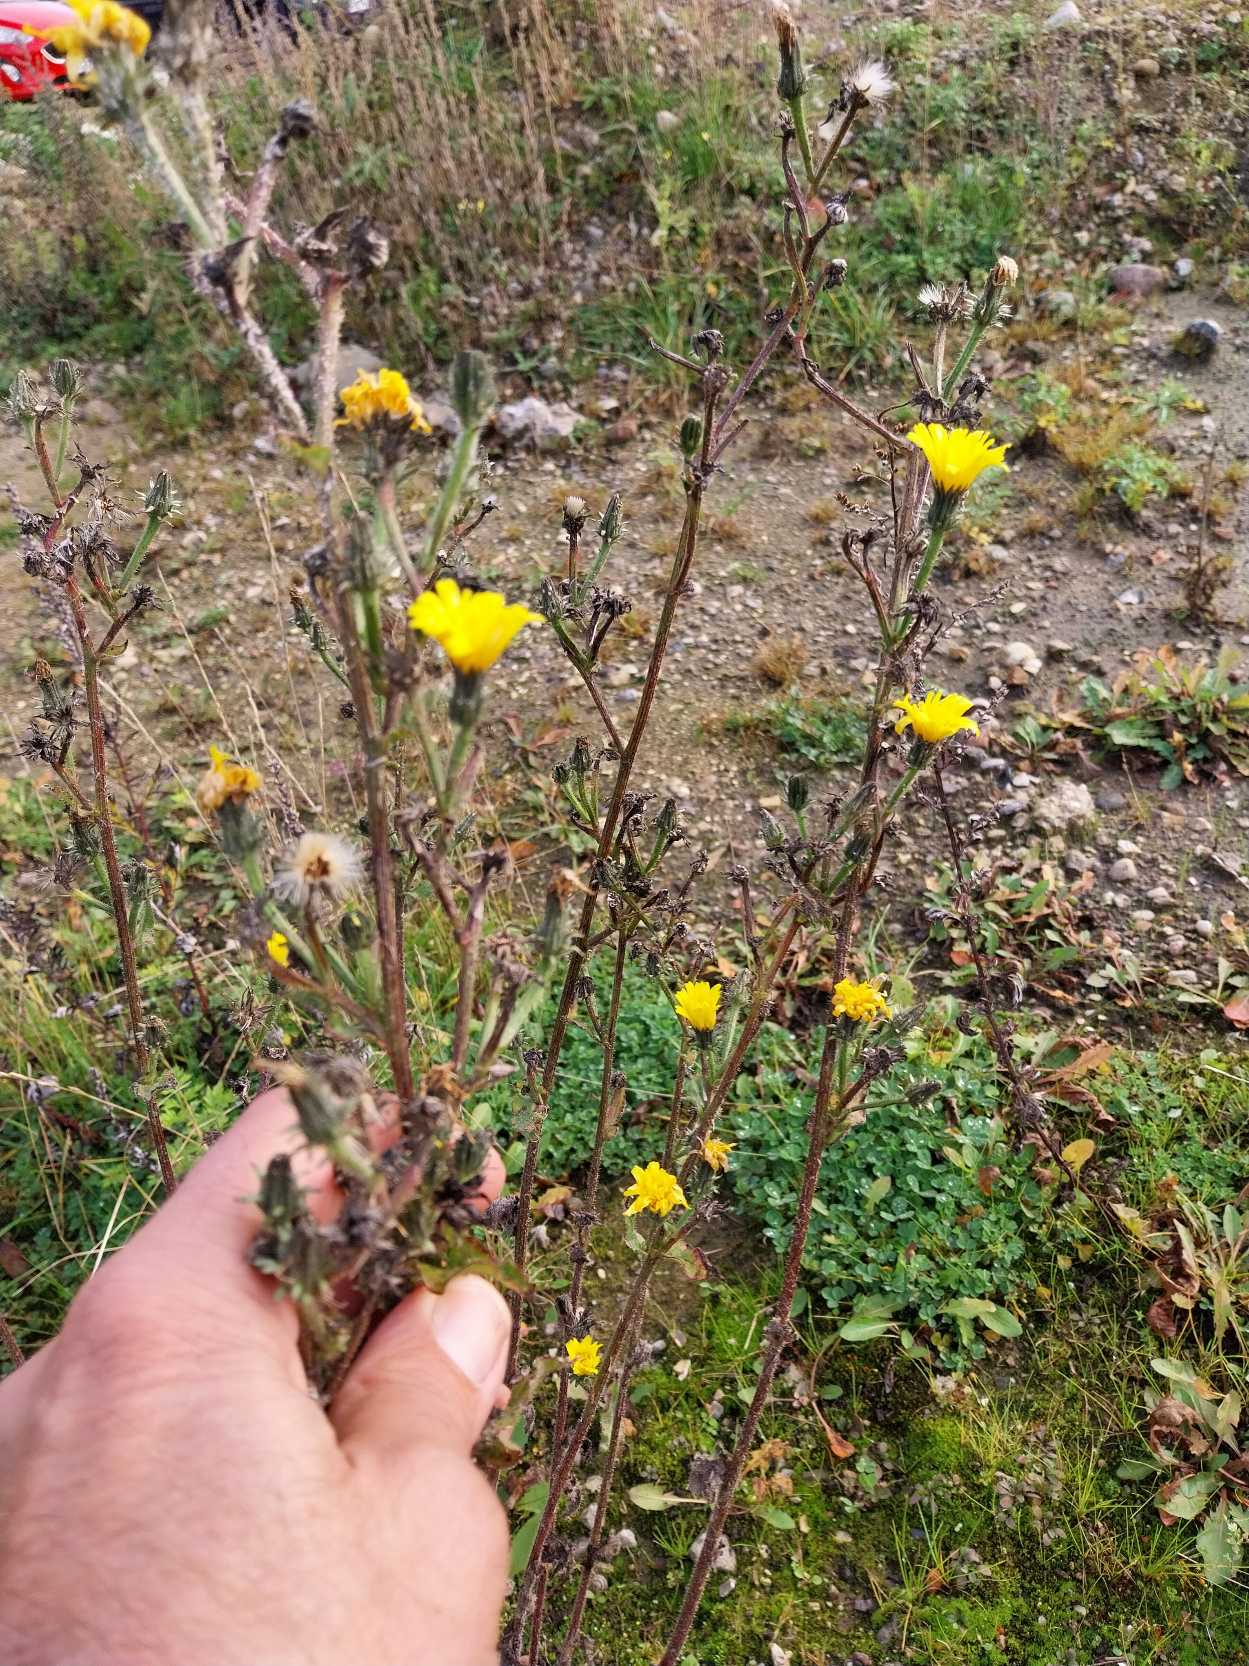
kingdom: Plantae
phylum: Tracheophyta
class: Magnoliopsida
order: Asterales
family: Asteraceae
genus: Picris
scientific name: Picris hieracioides
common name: Ru bittermælk
